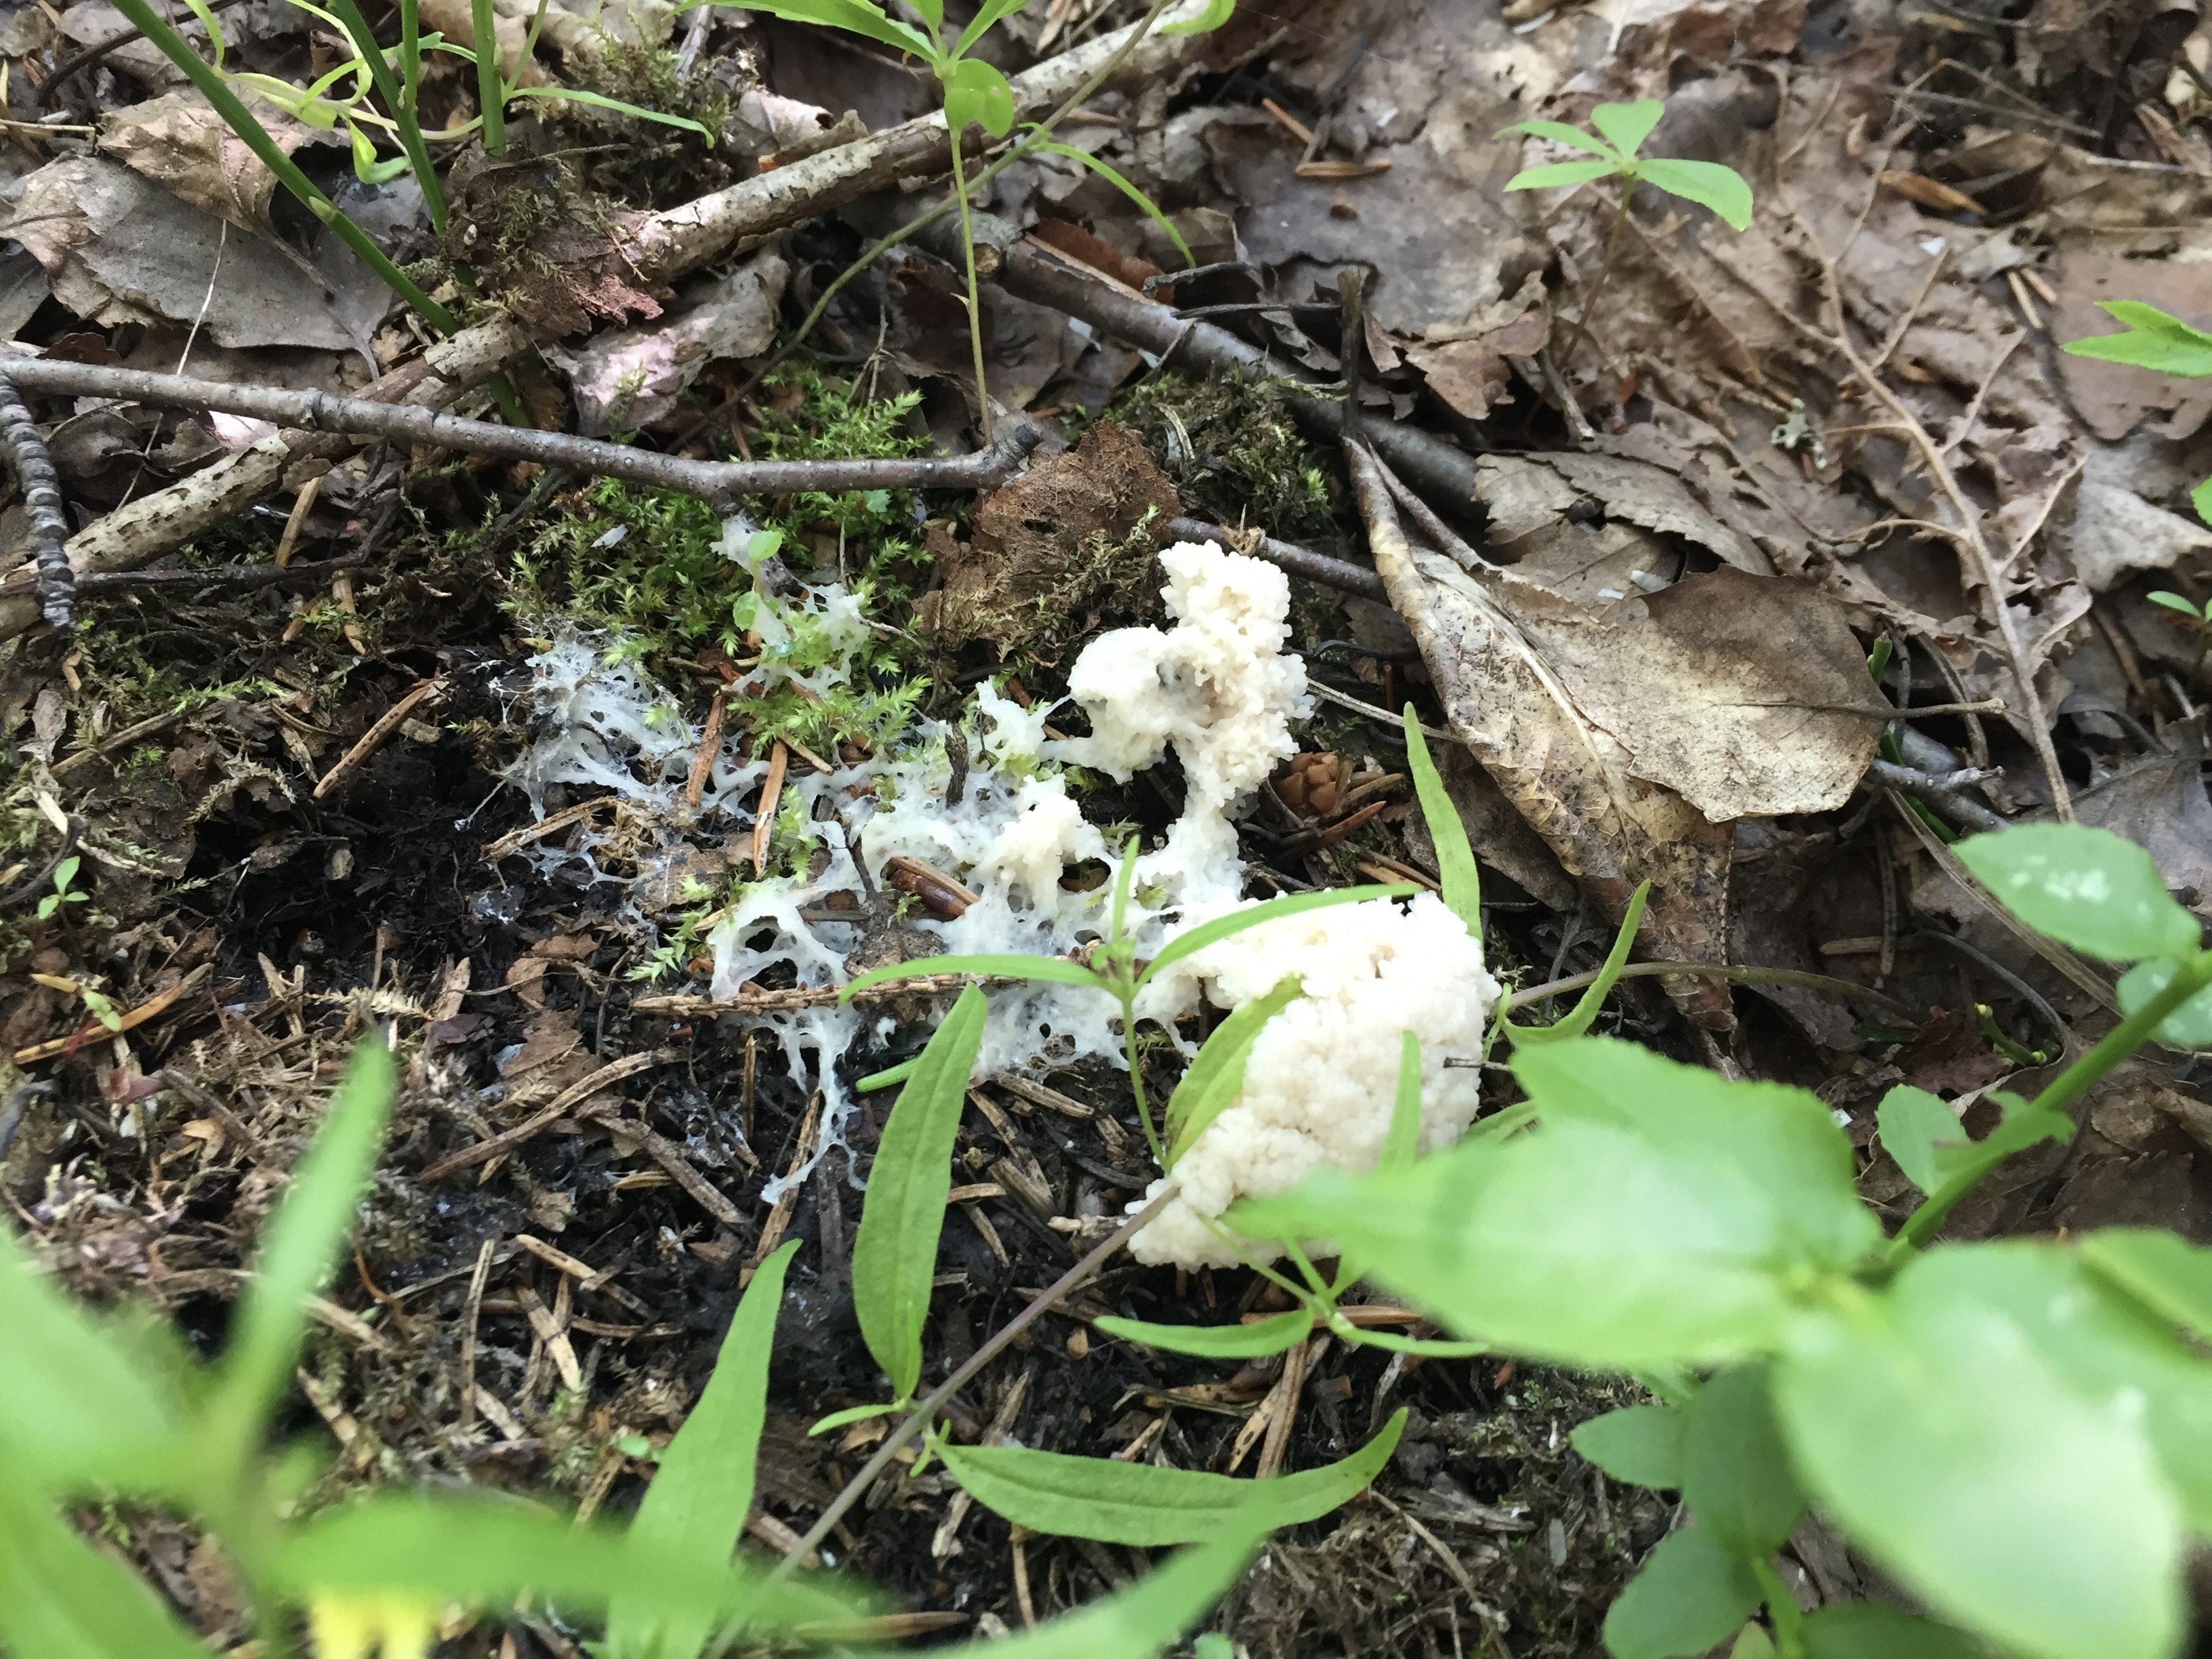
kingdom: Protozoa
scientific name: Protozoa
